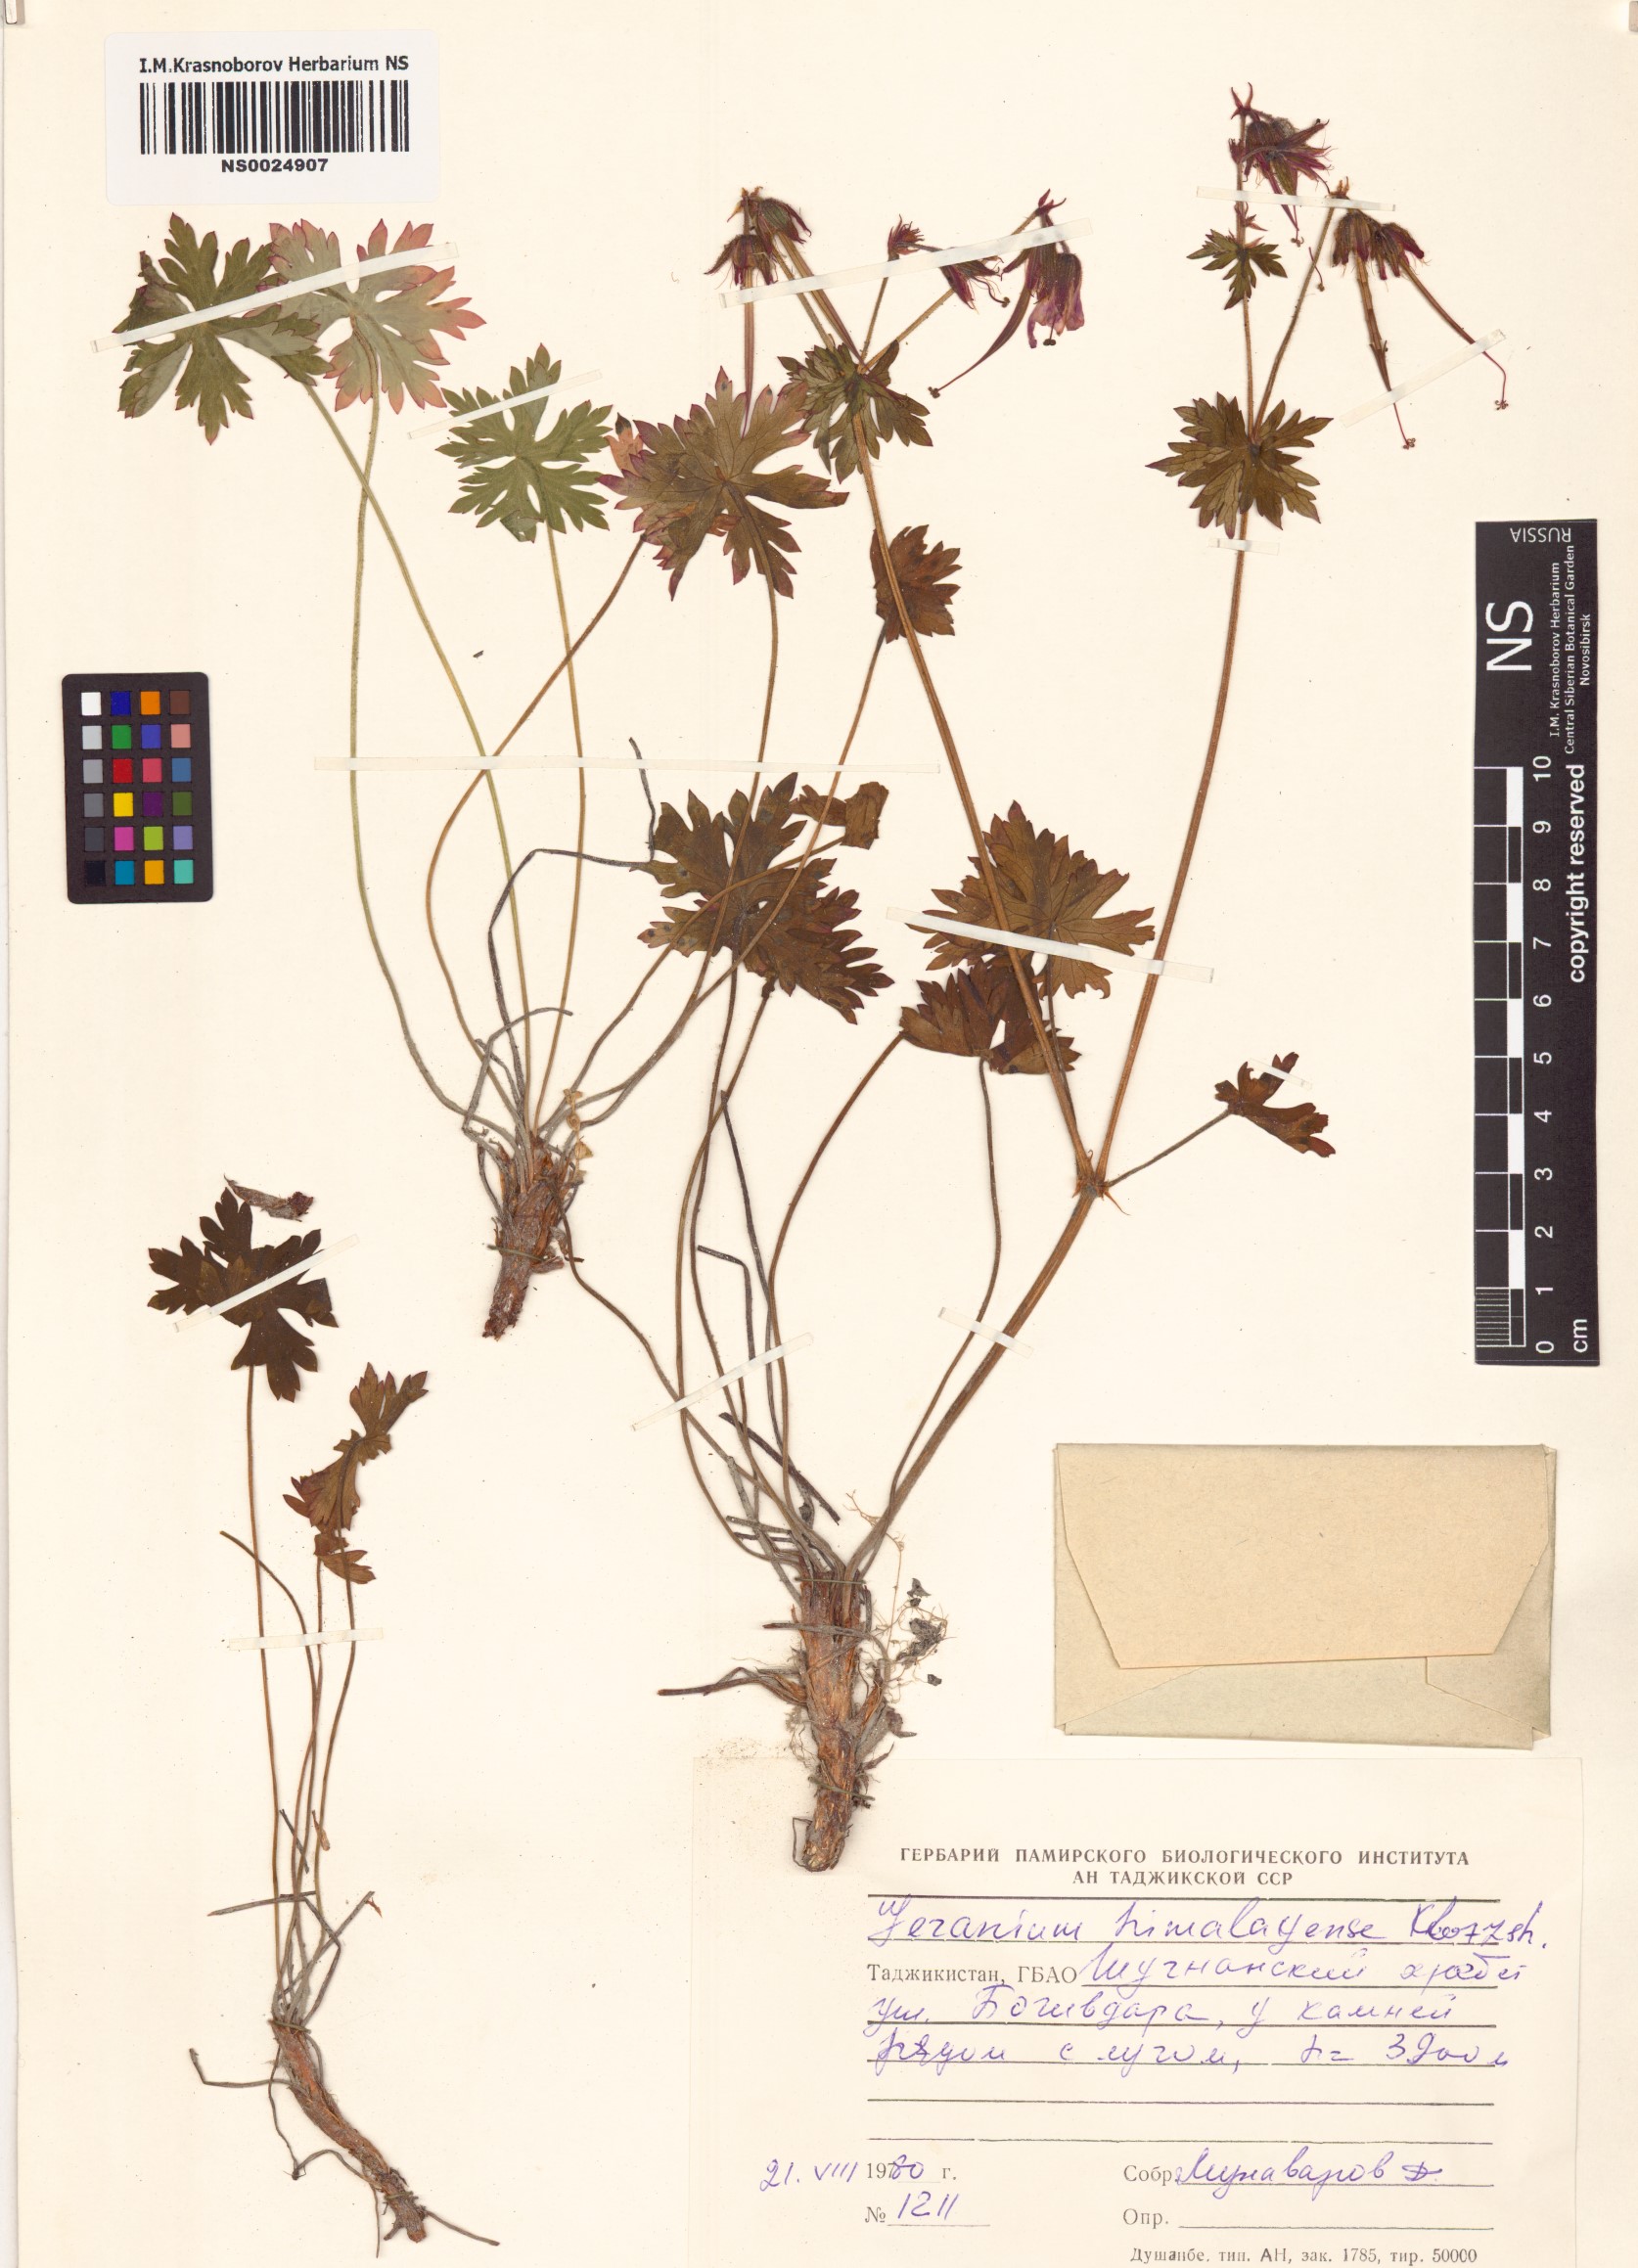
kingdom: Plantae
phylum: Tracheophyta
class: Magnoliopsida
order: Geraniales
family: Geraniaceae
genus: Geranium
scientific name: Geranium himalayense
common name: Himalayan crane's-bill
